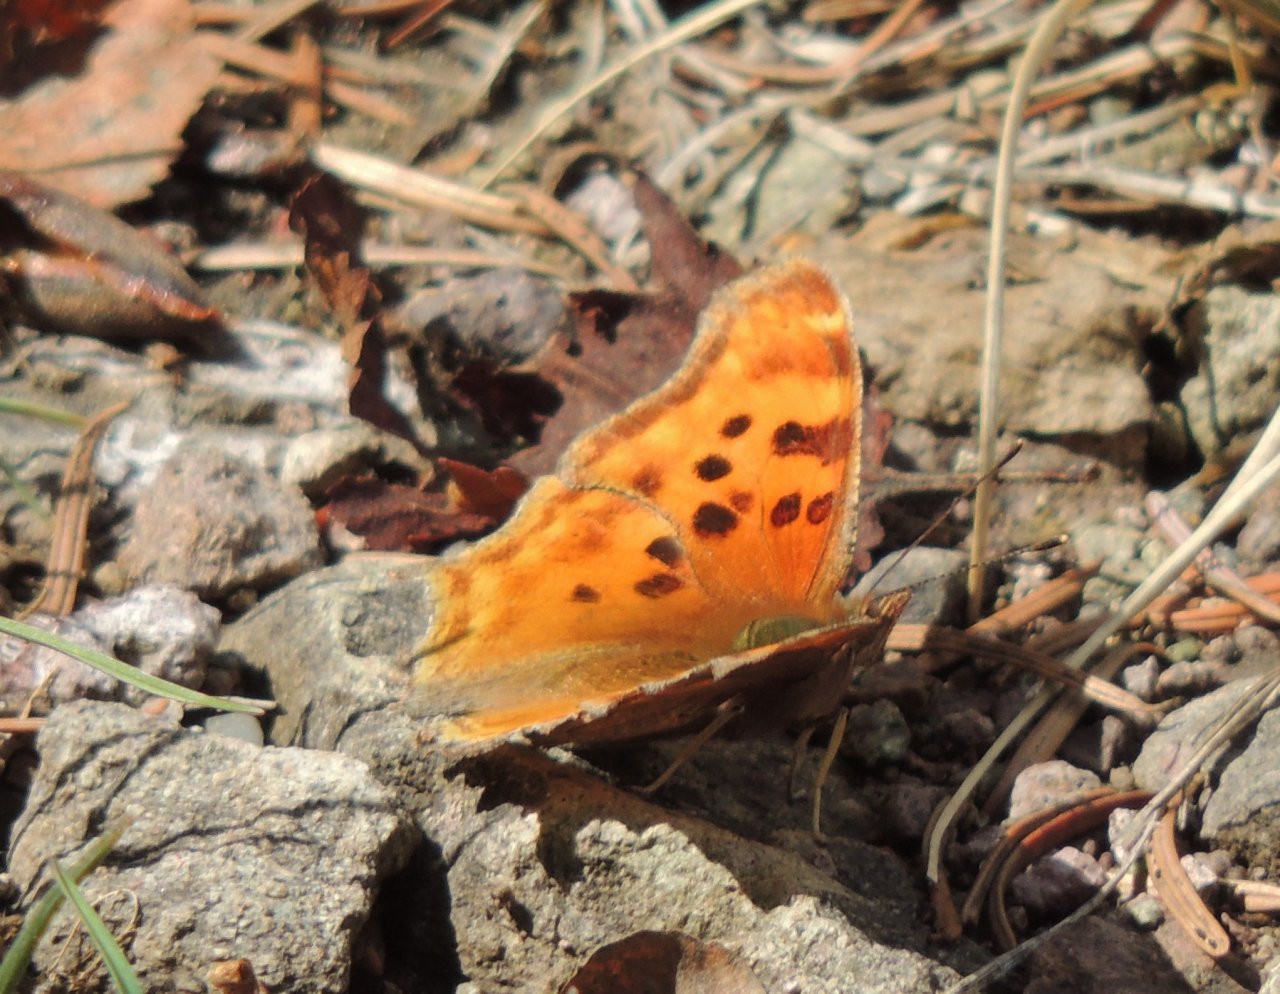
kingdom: Animalia
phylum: Arthropoda
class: Insecta
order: Lepidoptera
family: Nymphalidae
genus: Polygonia
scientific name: Polygonia satyrus
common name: Satyr Comma
